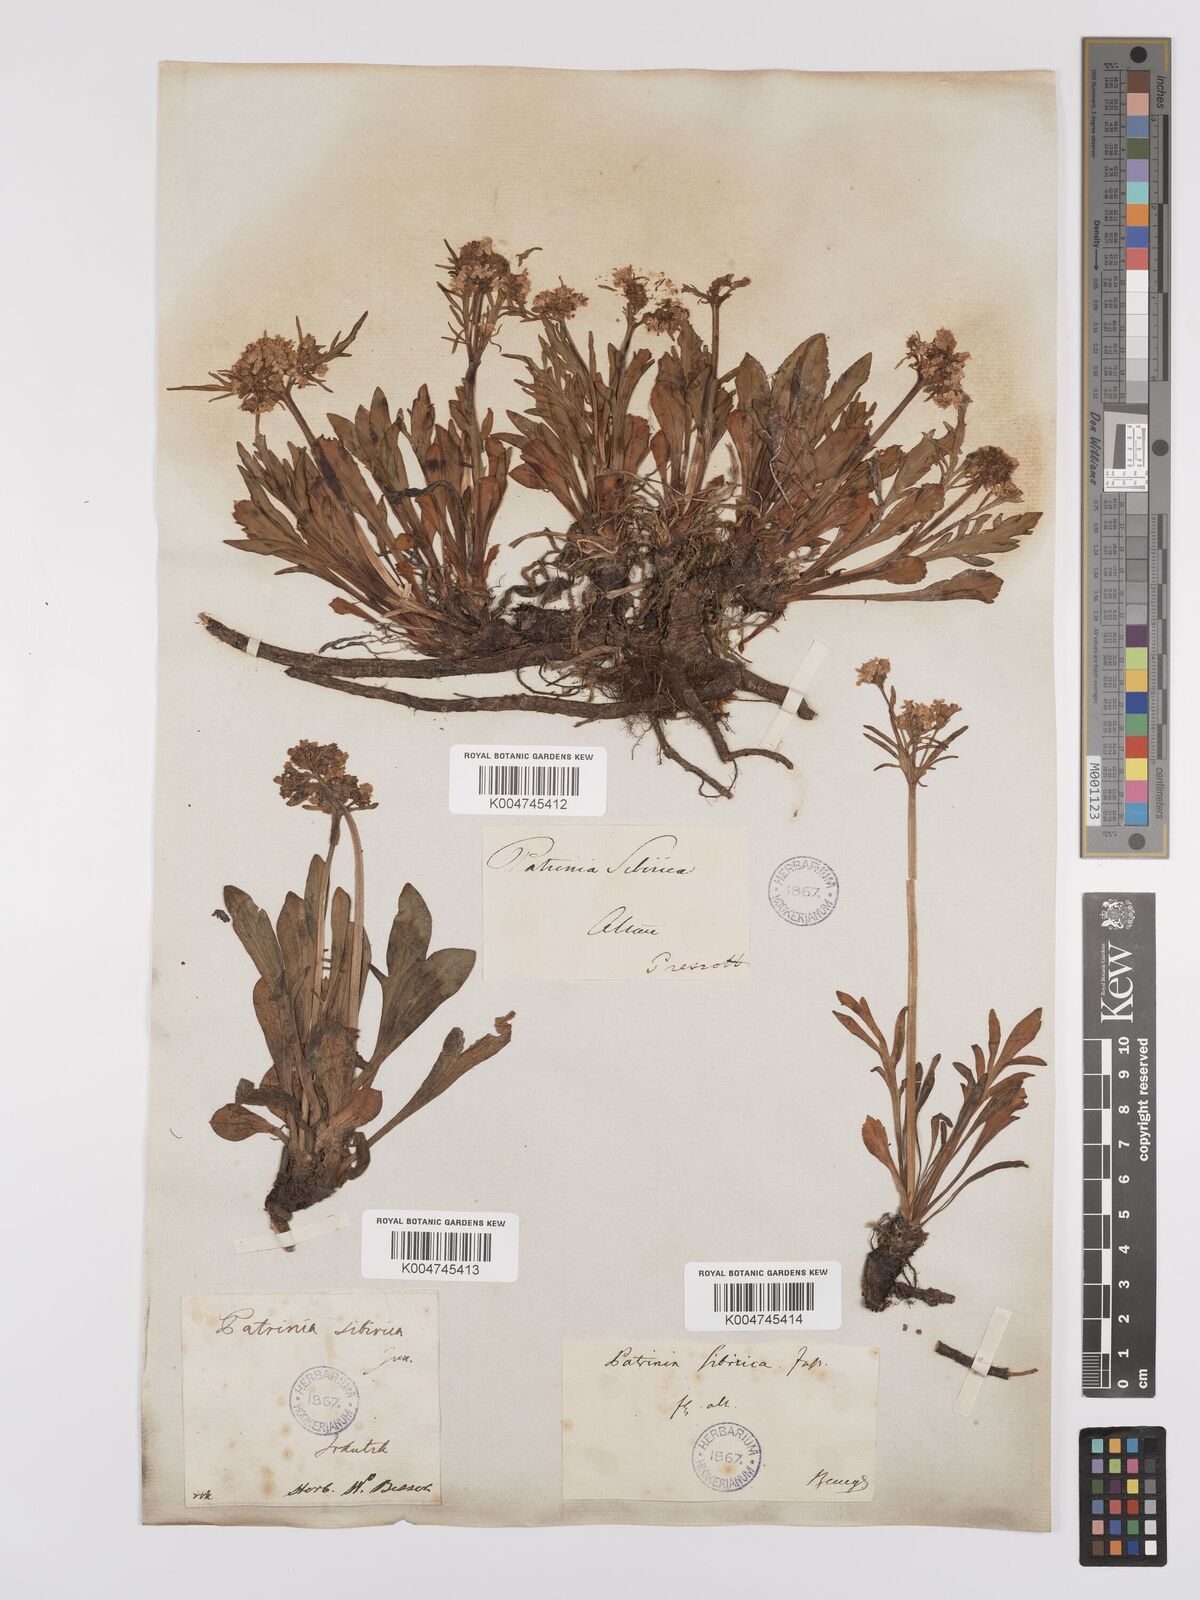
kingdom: Plantae
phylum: Tracheophyta
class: Magnoliopsida
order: Dipsacales
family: Caprifoliaceae
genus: Patrinia
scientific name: Patrinia sibirica
